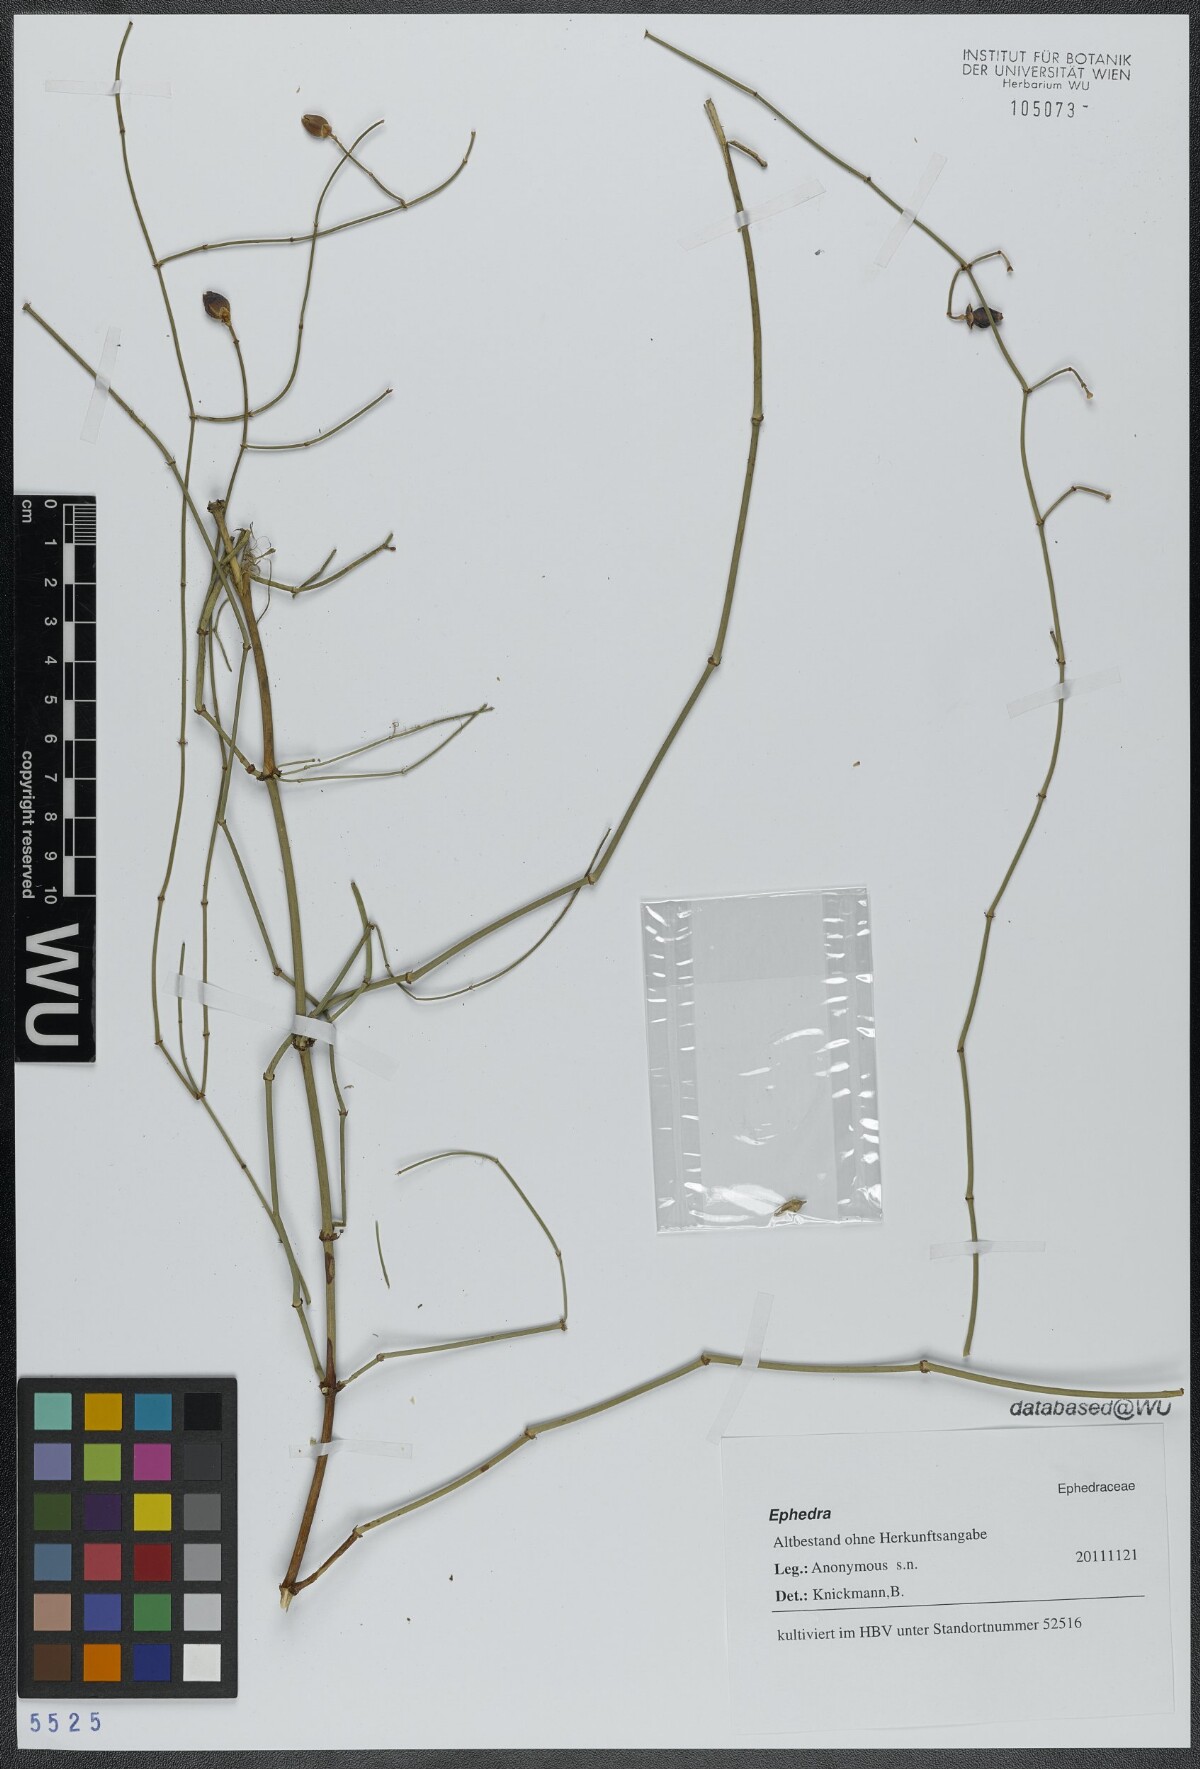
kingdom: Plantae
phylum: Tracheophyta
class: Gnetopsida
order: Ephedrales
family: Ephedraceae
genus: Ephedra
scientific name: Ephedra
